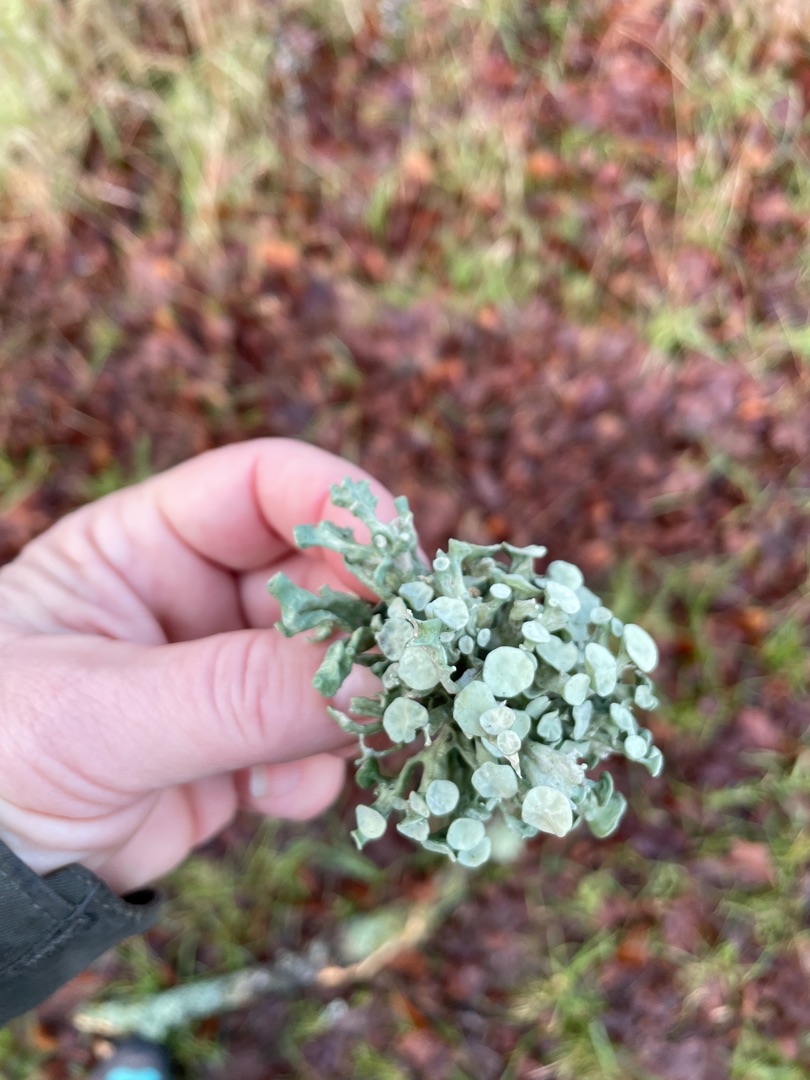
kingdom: Fungi
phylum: Ascomycota
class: Lecanoromycetes
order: Lecanorales
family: Ramalinaceae
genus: Ramalina
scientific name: Ramalina fastigiata
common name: Tue-grenlav
